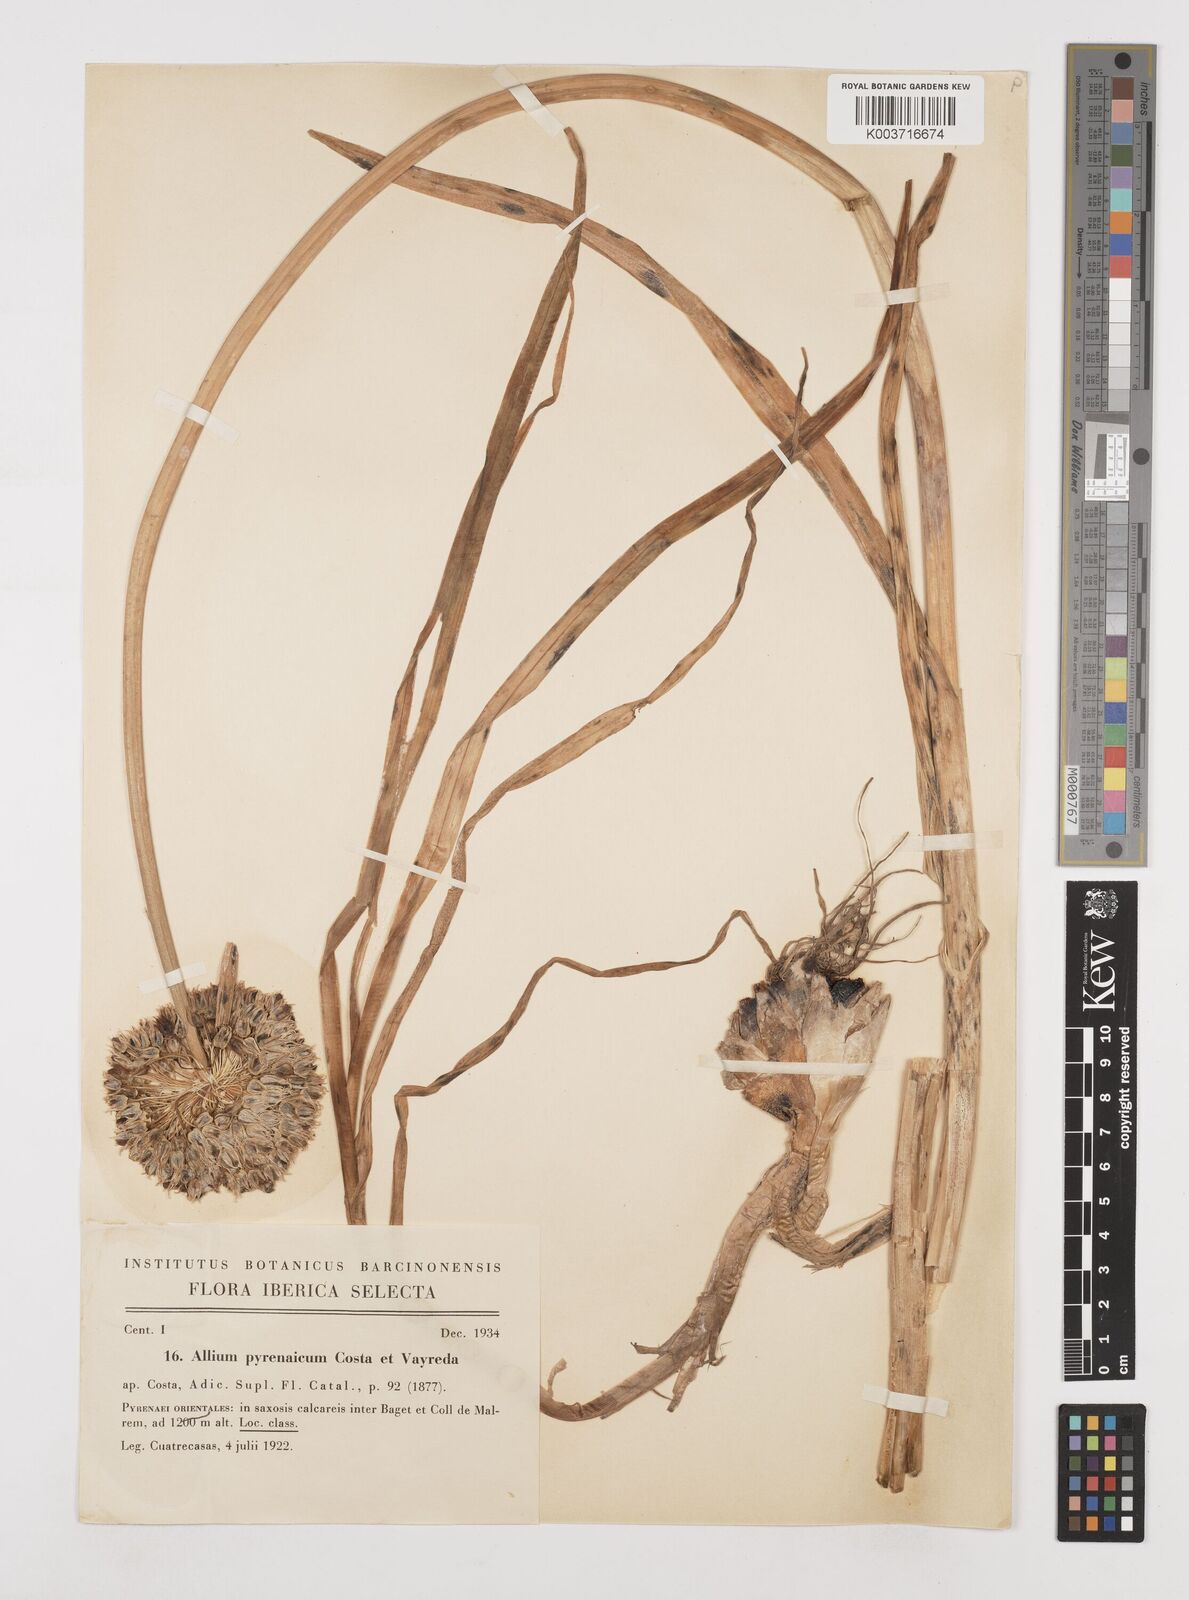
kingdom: Plantae
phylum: Tracheophyta
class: Liliopsida
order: Asparagales
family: Amaryllidaceae
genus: Allium
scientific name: Allium pyrenaicum
